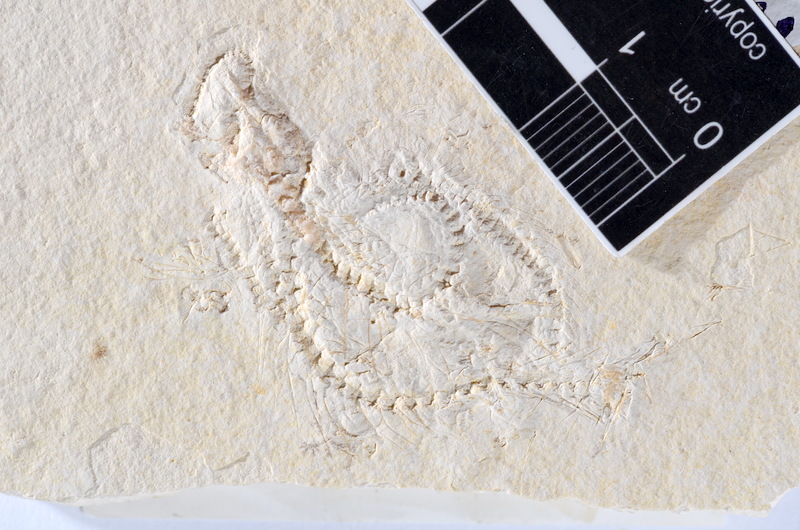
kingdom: Animalia
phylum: Chordata
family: Ascalaboidae
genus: Tharsis
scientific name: Tharsis dubius
